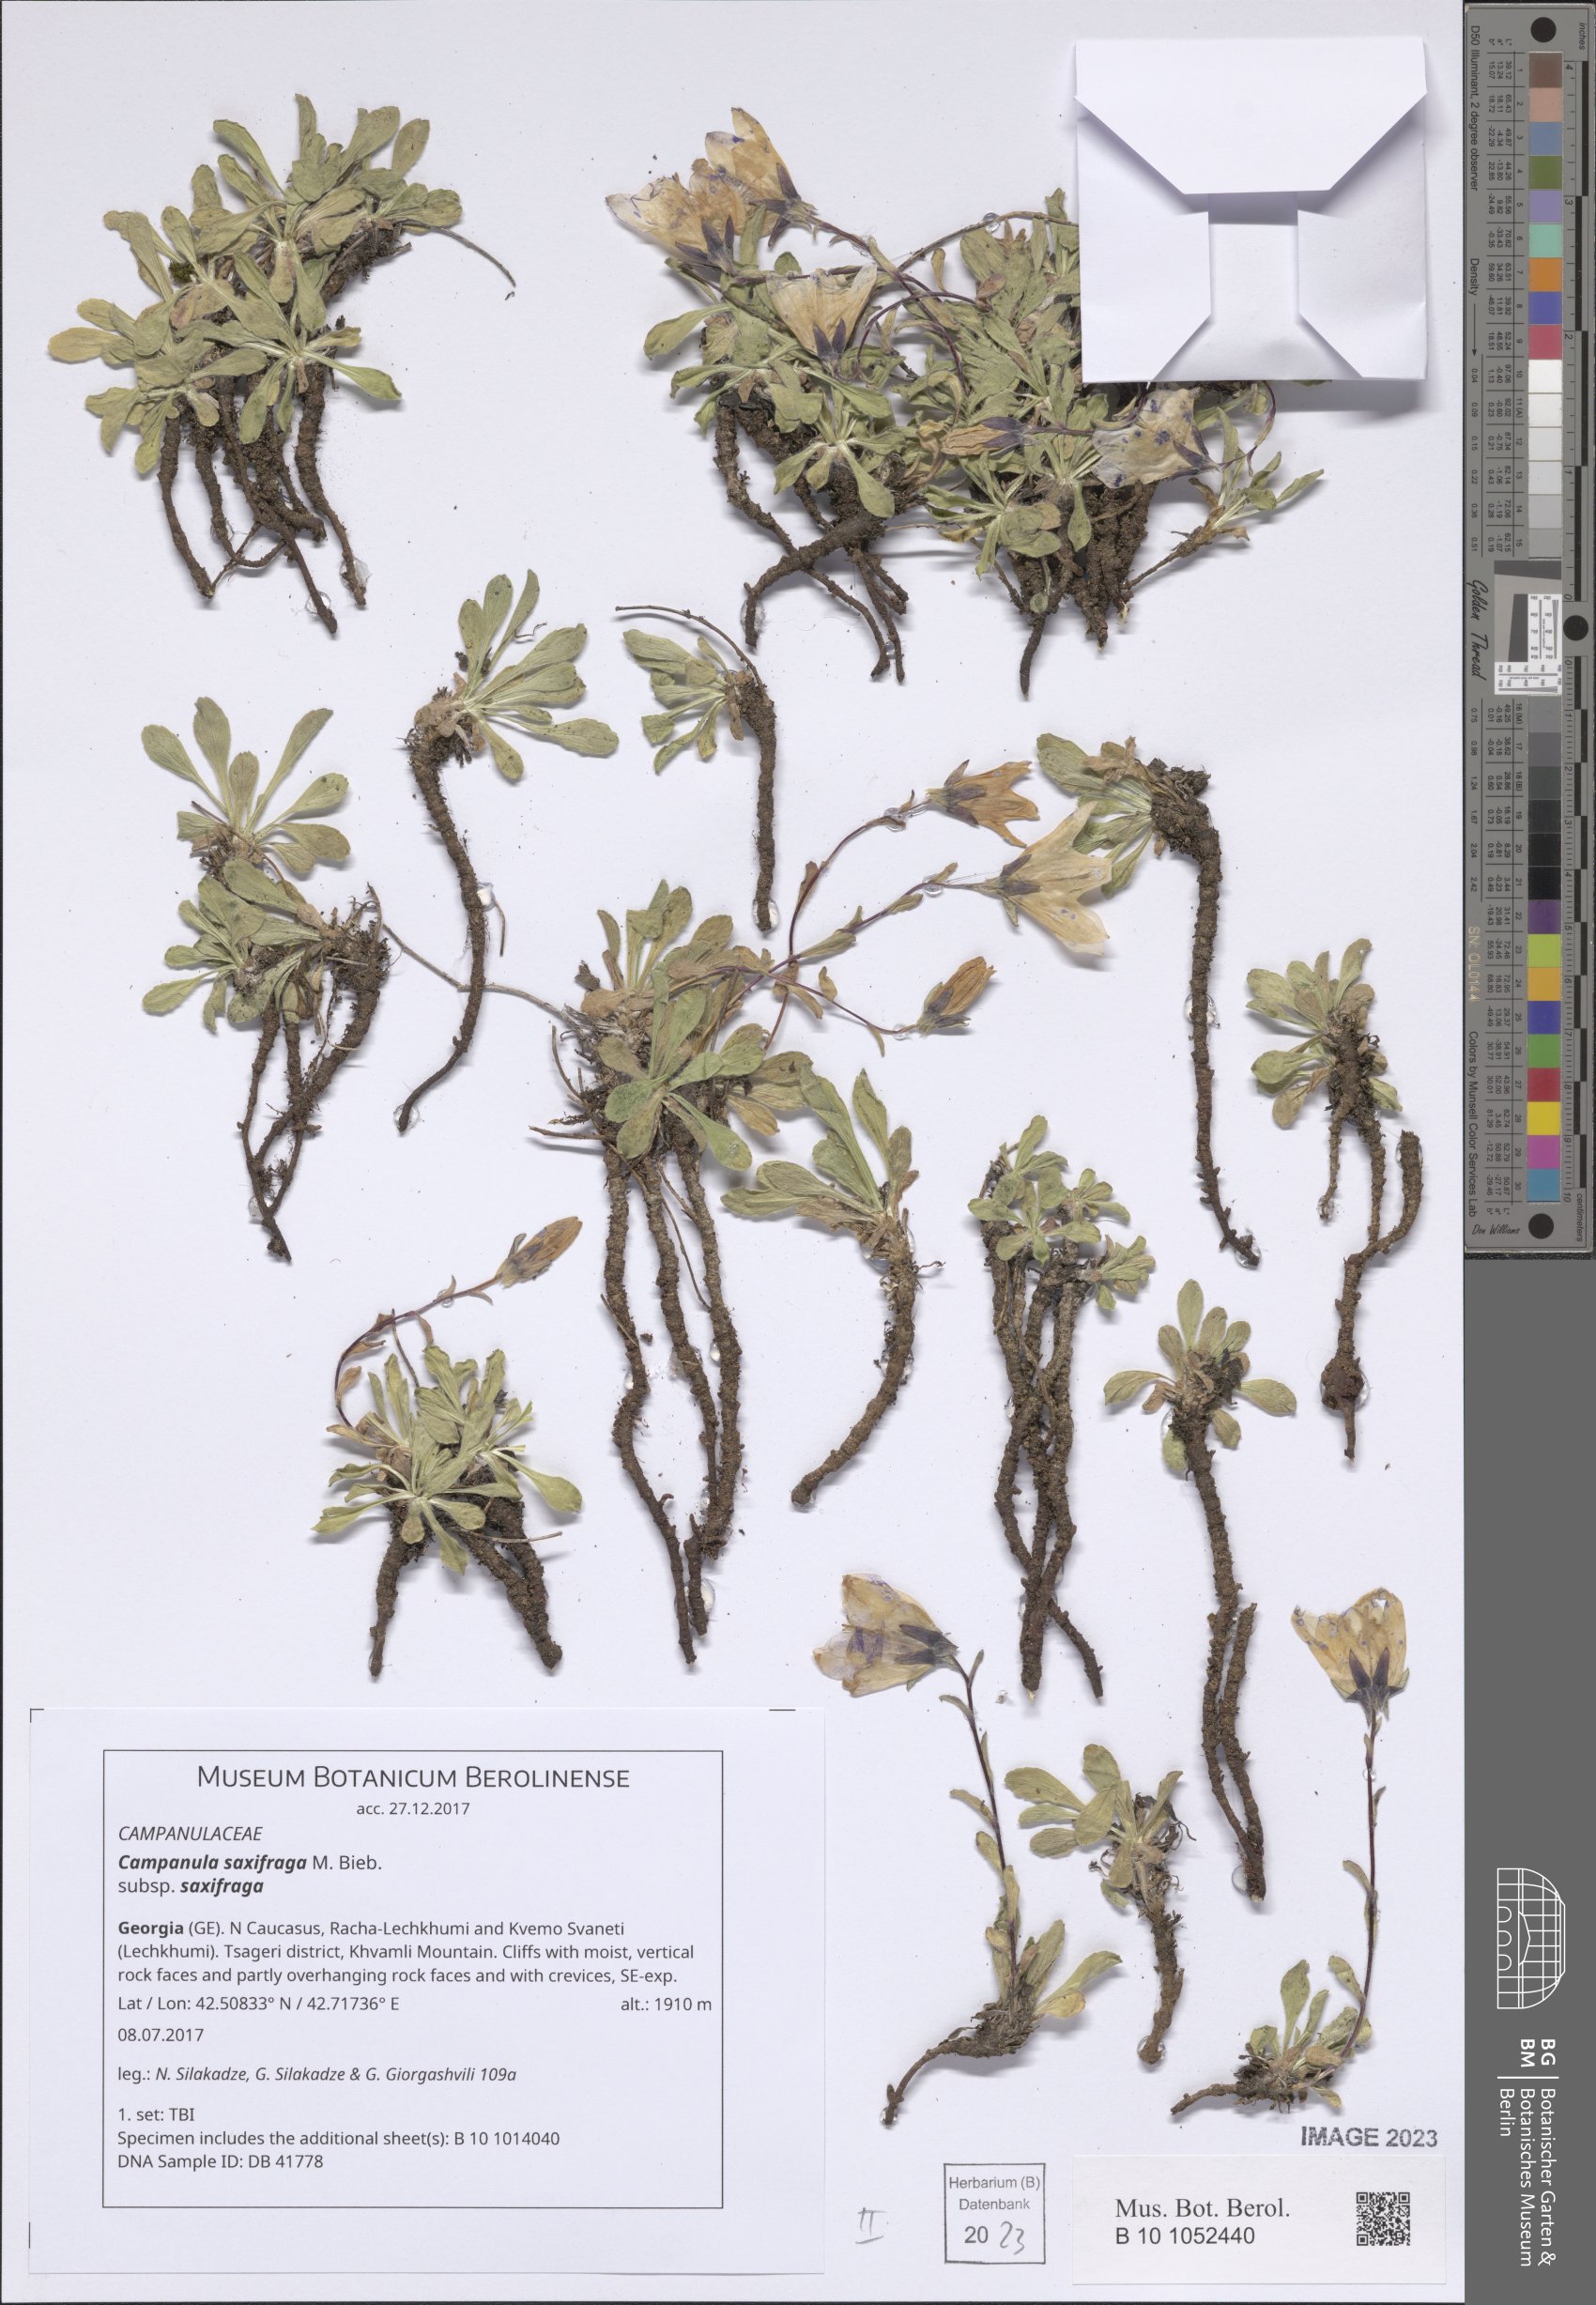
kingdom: Plantae
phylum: Tracheophyta
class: Magnoliopsida
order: Asterales
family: Campanulaceae
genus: Campanula
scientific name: Campanula saxifraga
